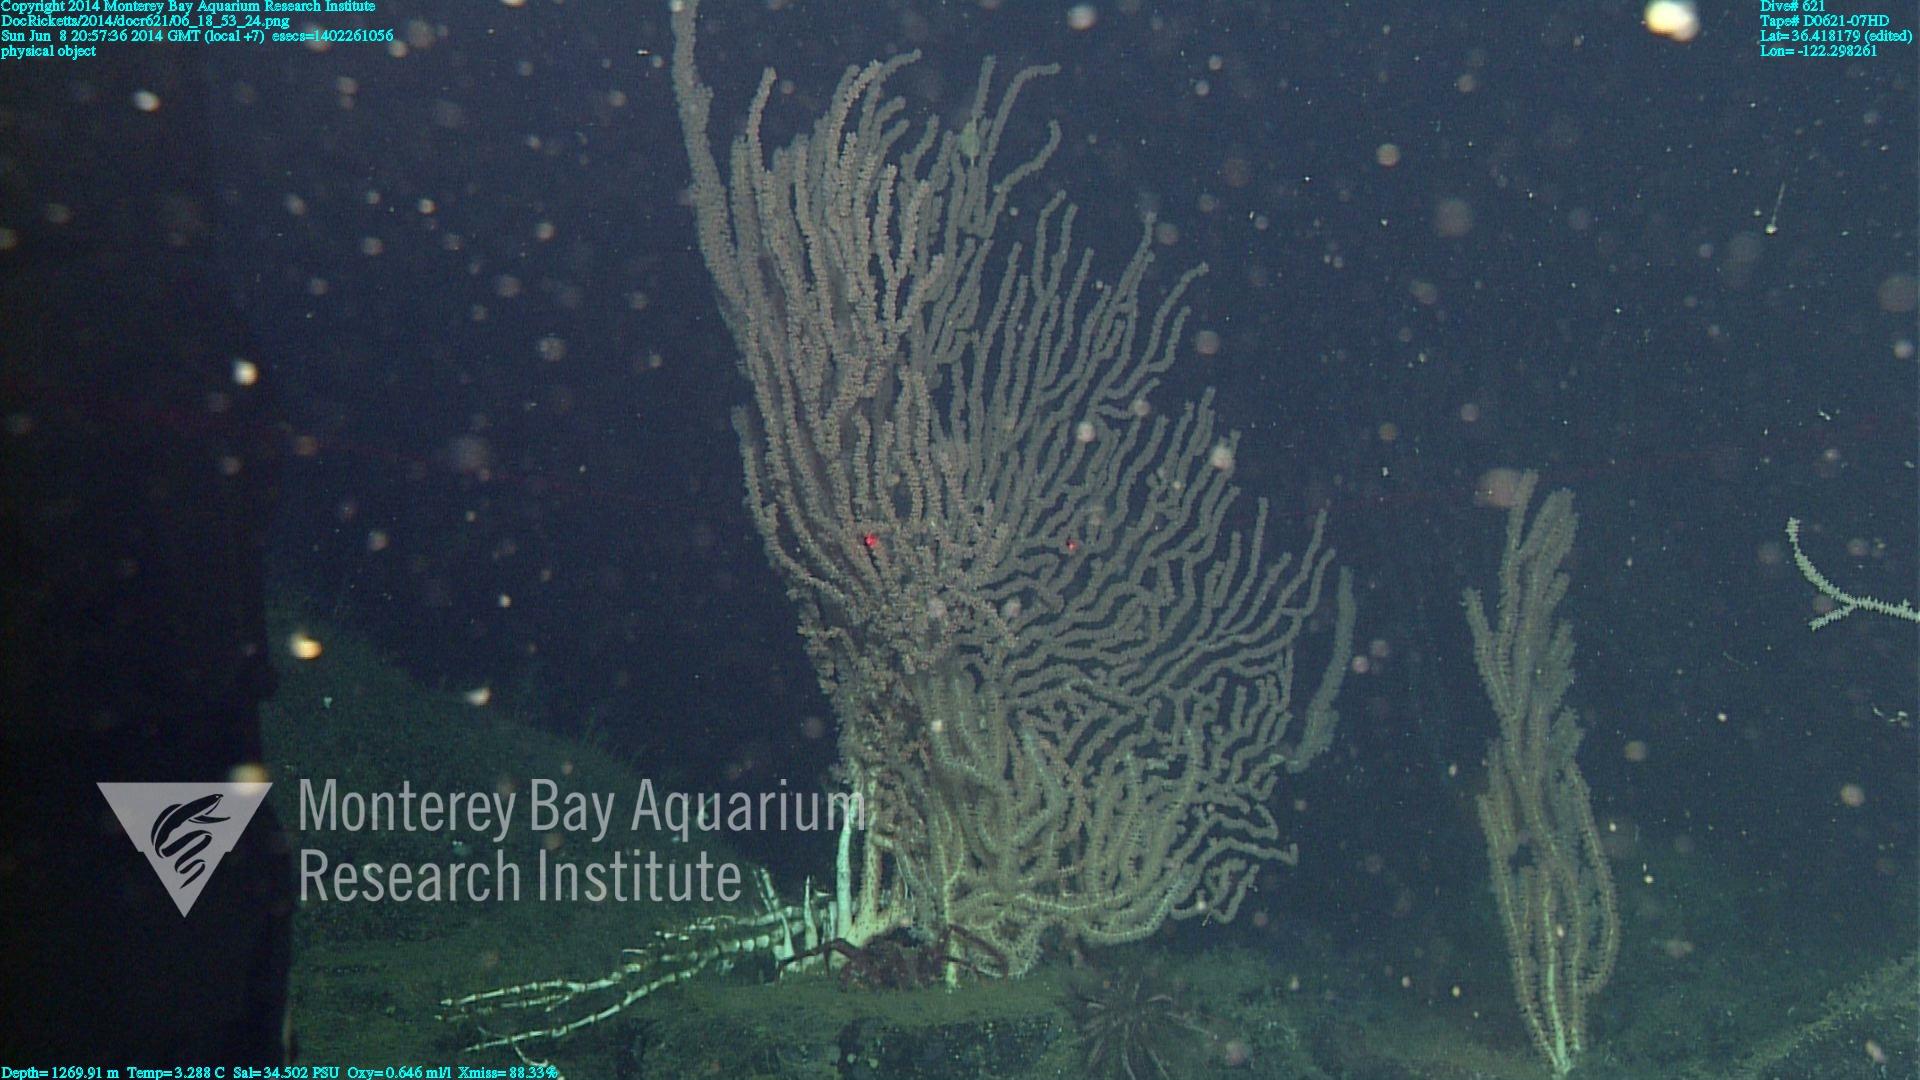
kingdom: Animalia
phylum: Cnidaria
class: Anthozoa
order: Scleralcyonacea
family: Keratoisididae
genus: Keratoisis
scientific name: Keratoisis
